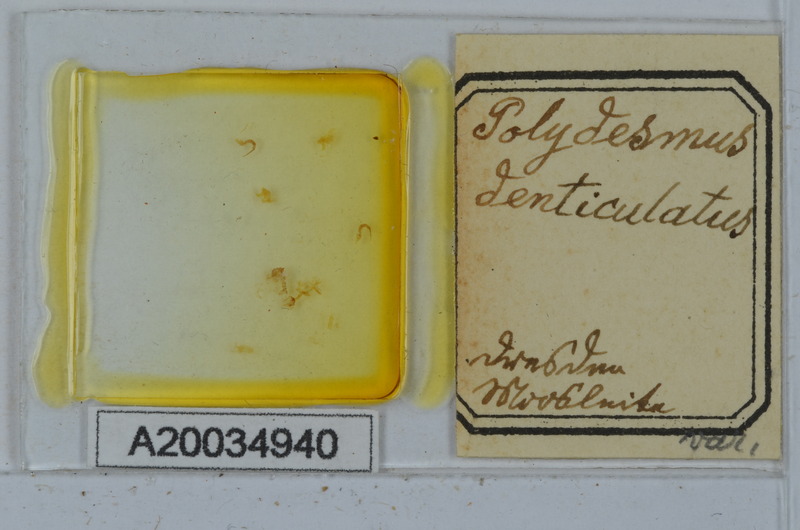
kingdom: Animalia
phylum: Arthropoda
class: Diplopoda
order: Polydesmida
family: Polydesmidae
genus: Polydesmus
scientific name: Polydesmus denticulatus
